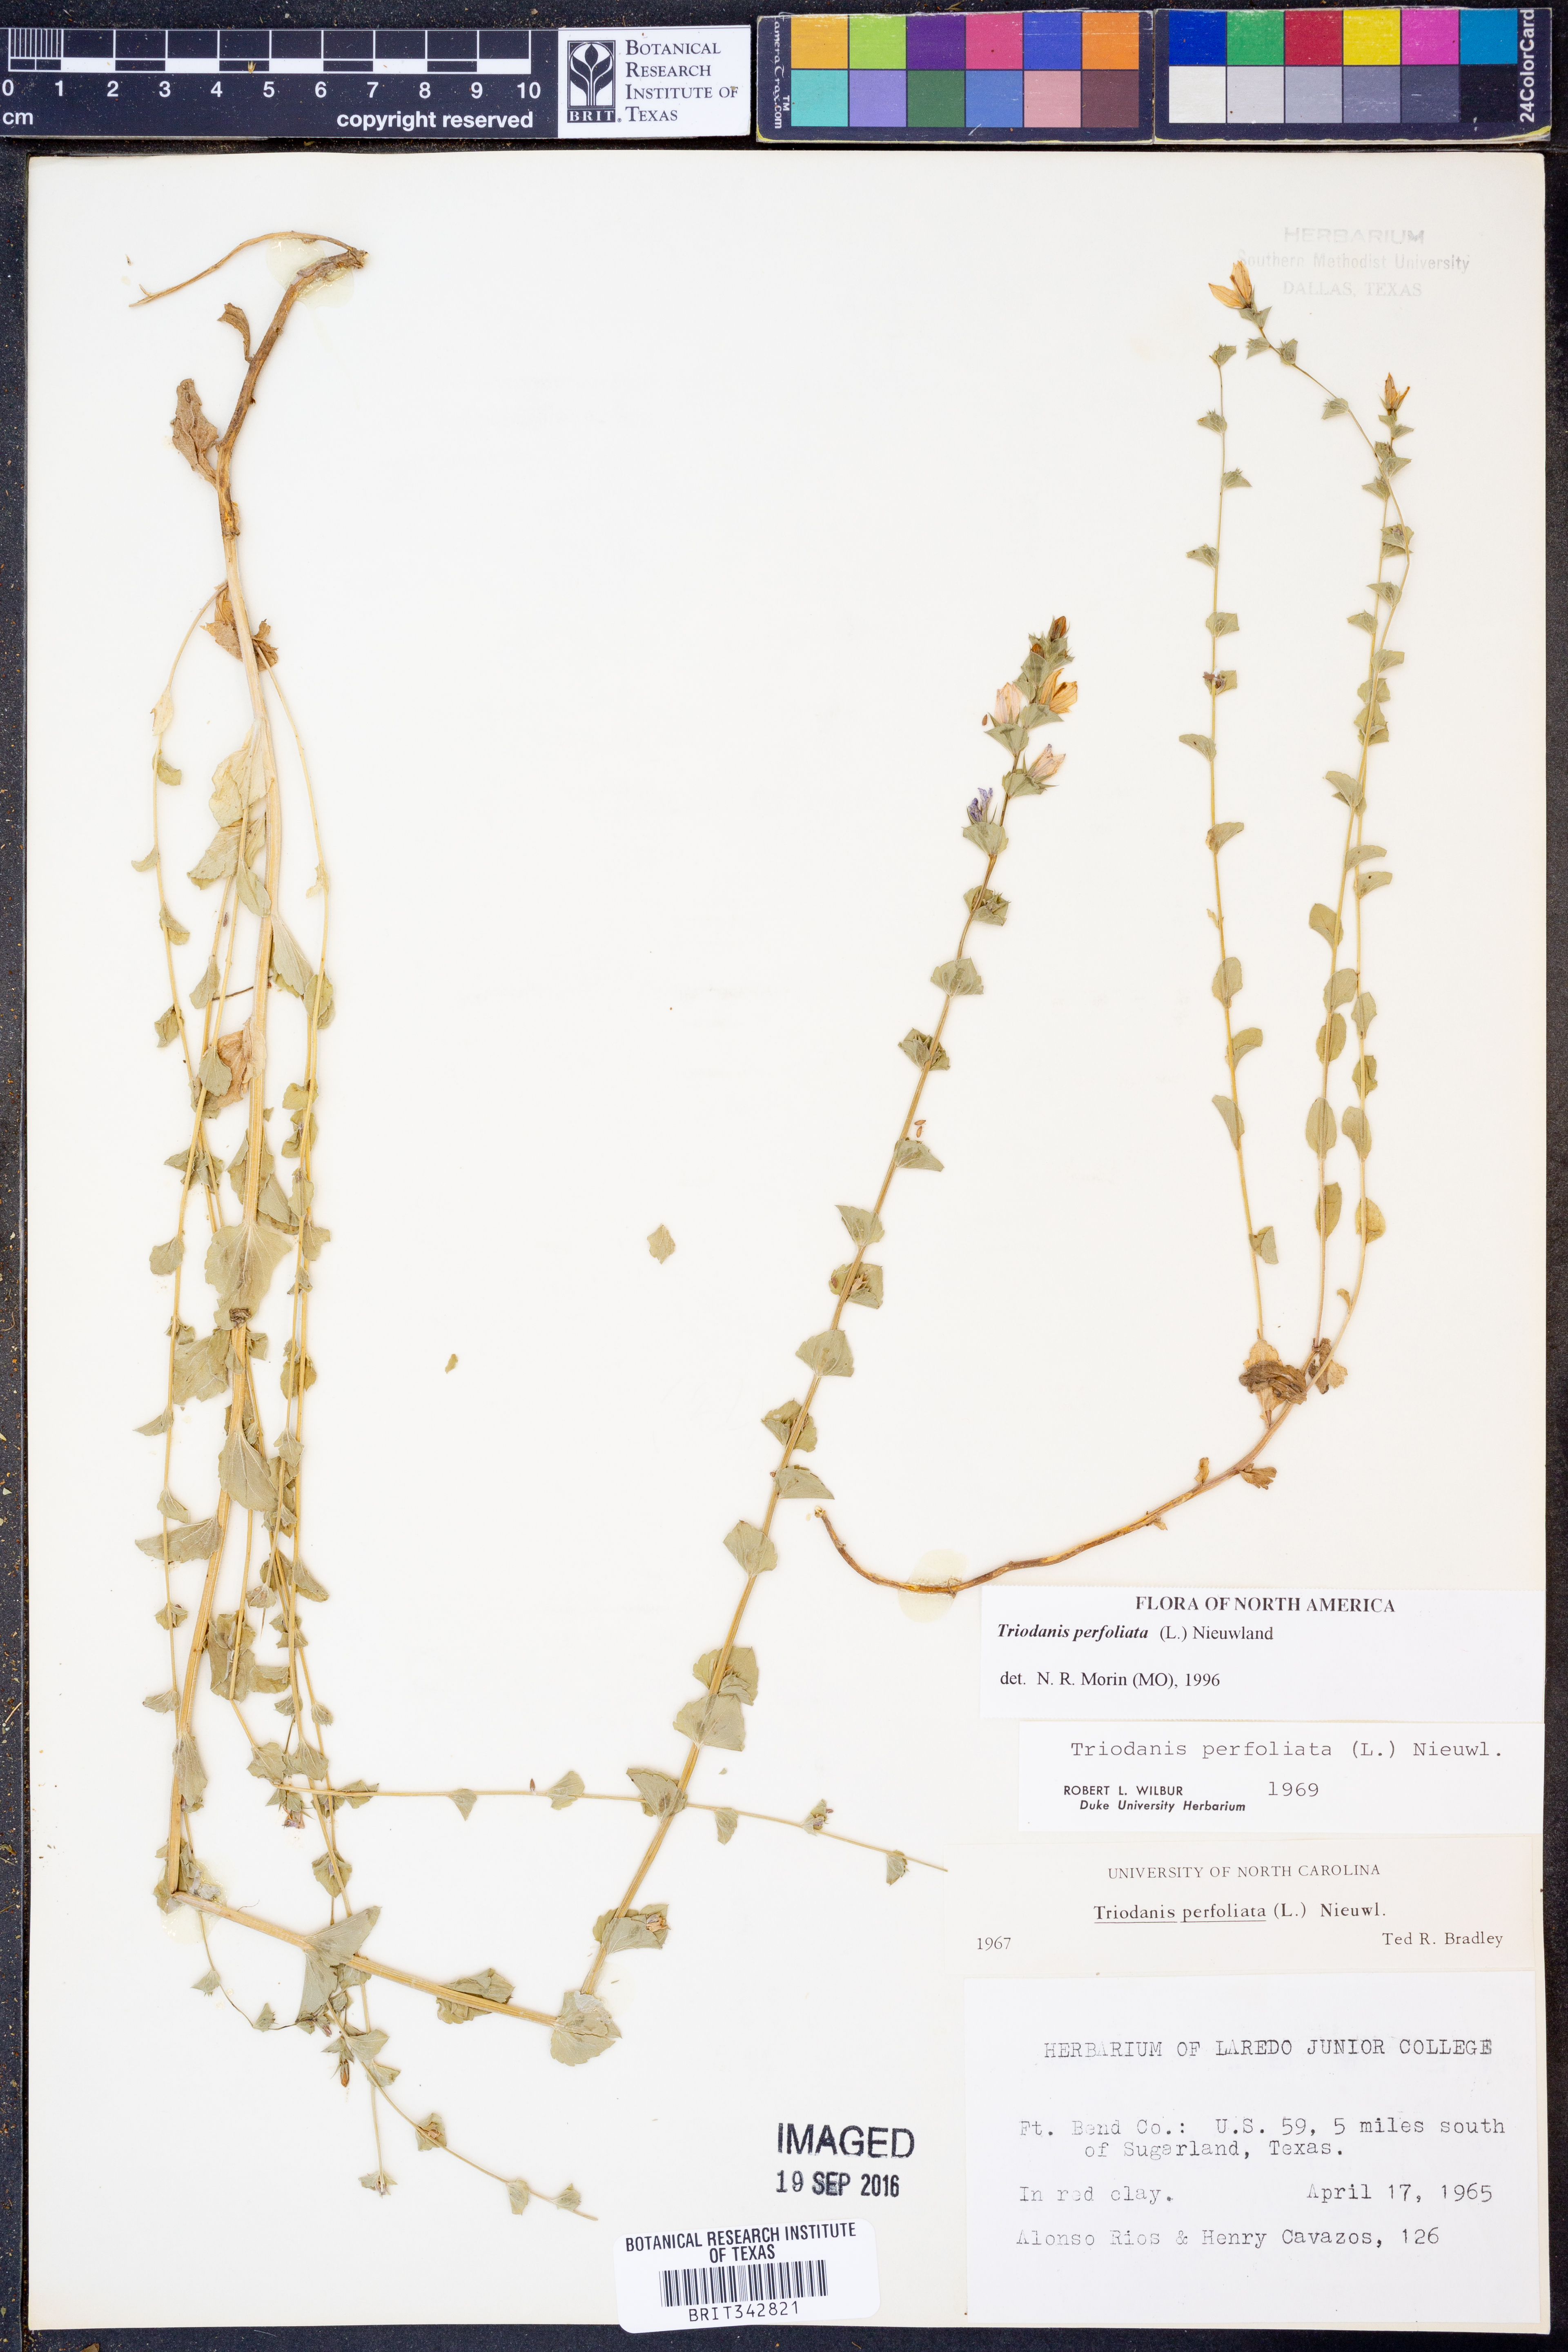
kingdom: Plantae
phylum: Tracheophyta
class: Magnoliopsida
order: Asterales
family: Campanulaceae
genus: Triodanis
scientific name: Triodanis perfoliata
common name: Clasping venus' looking-glass
